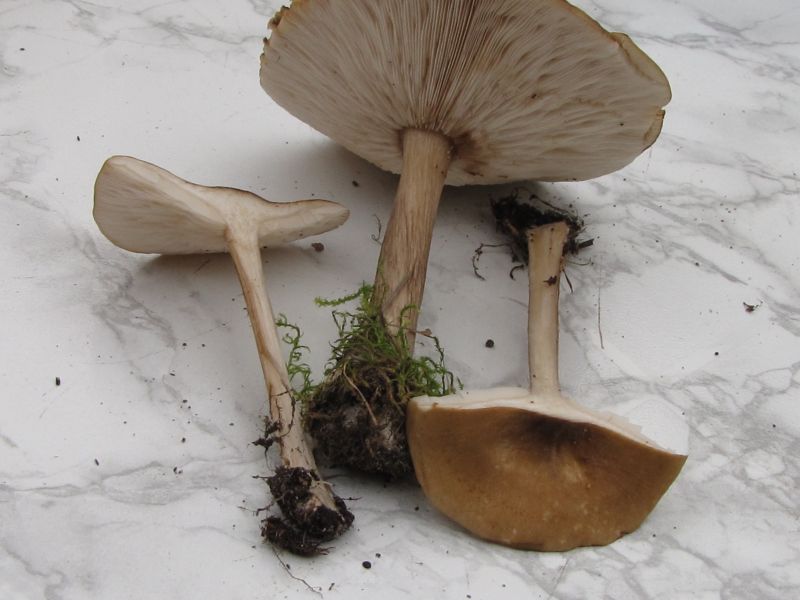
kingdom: Fungi
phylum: Basidiomycota
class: Agaricomycetes
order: Agaricales
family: Tricholomataceae
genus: Melanoleuca
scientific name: Melanoleuca grammopodia
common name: stribestokket munkehat
